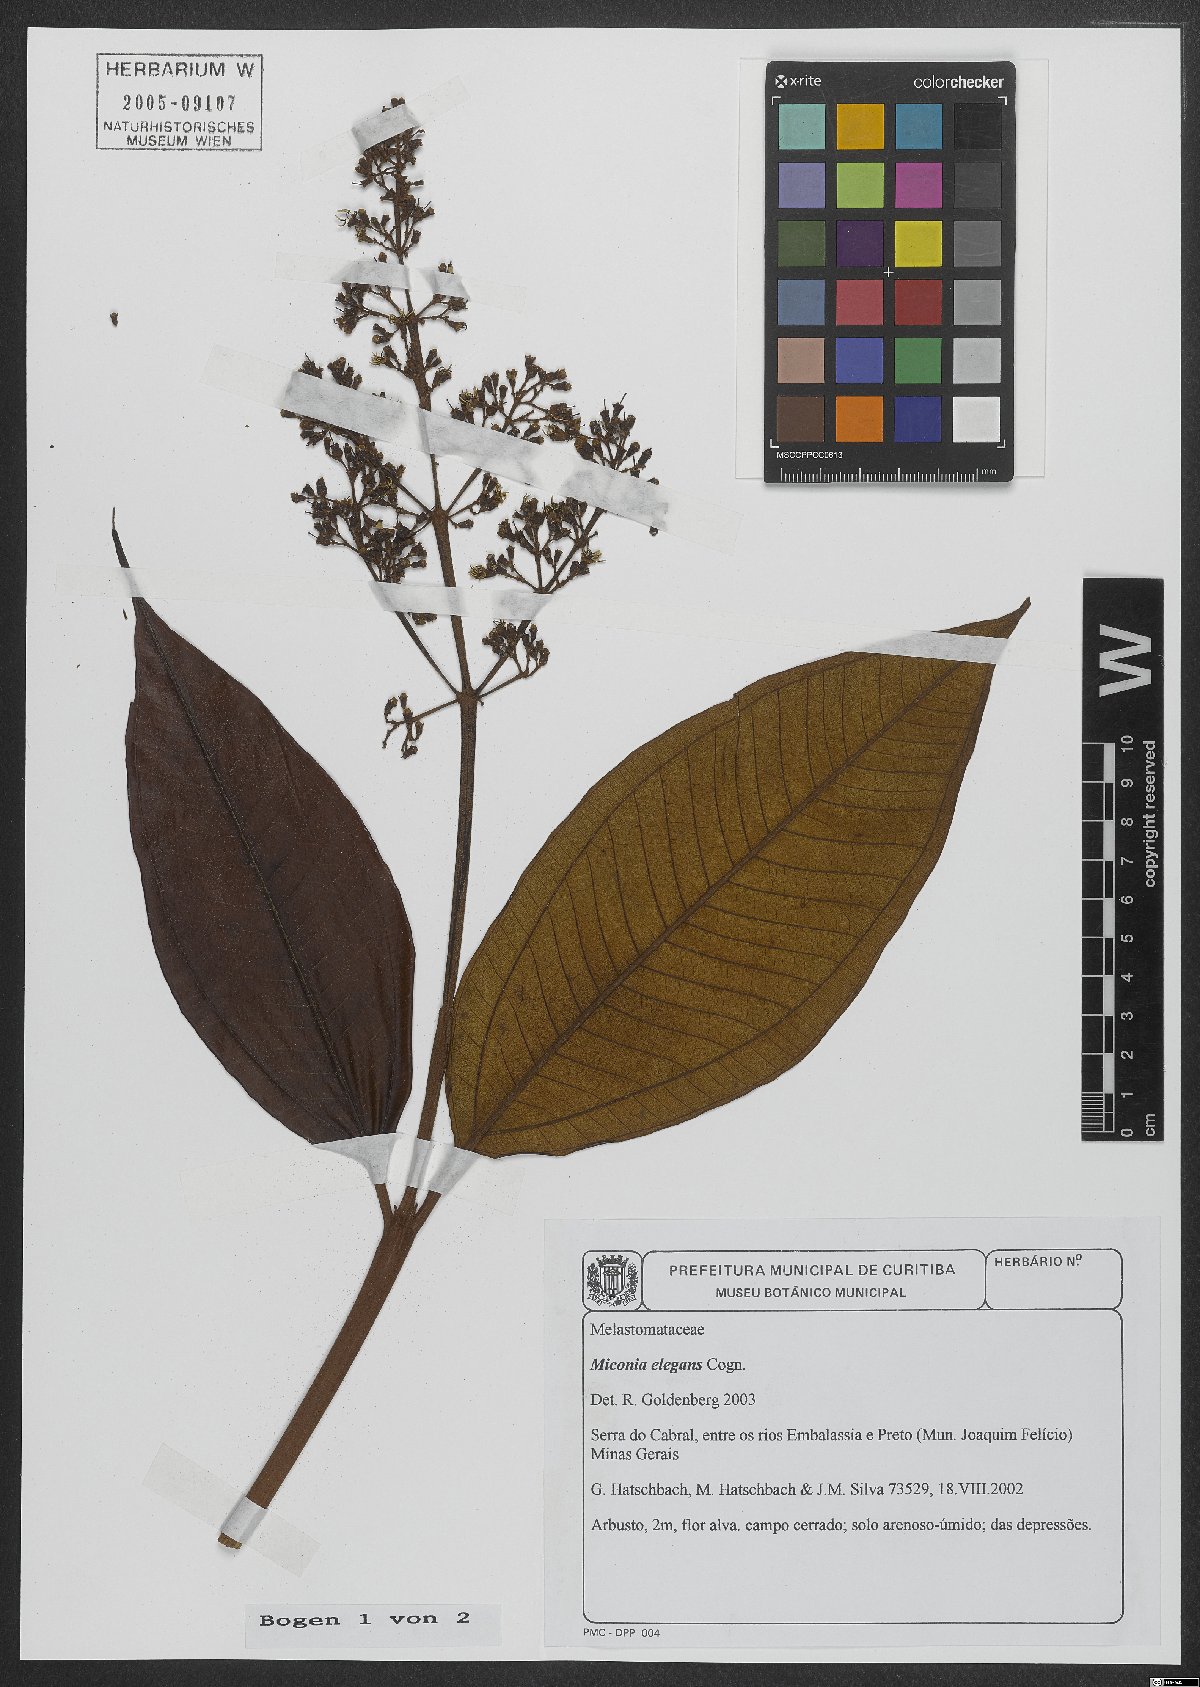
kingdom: Plantae
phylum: Tracheophyta
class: Magnoliopsida
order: Myrtales
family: Melastomataceae
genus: Miconia
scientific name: Miconia elegans
